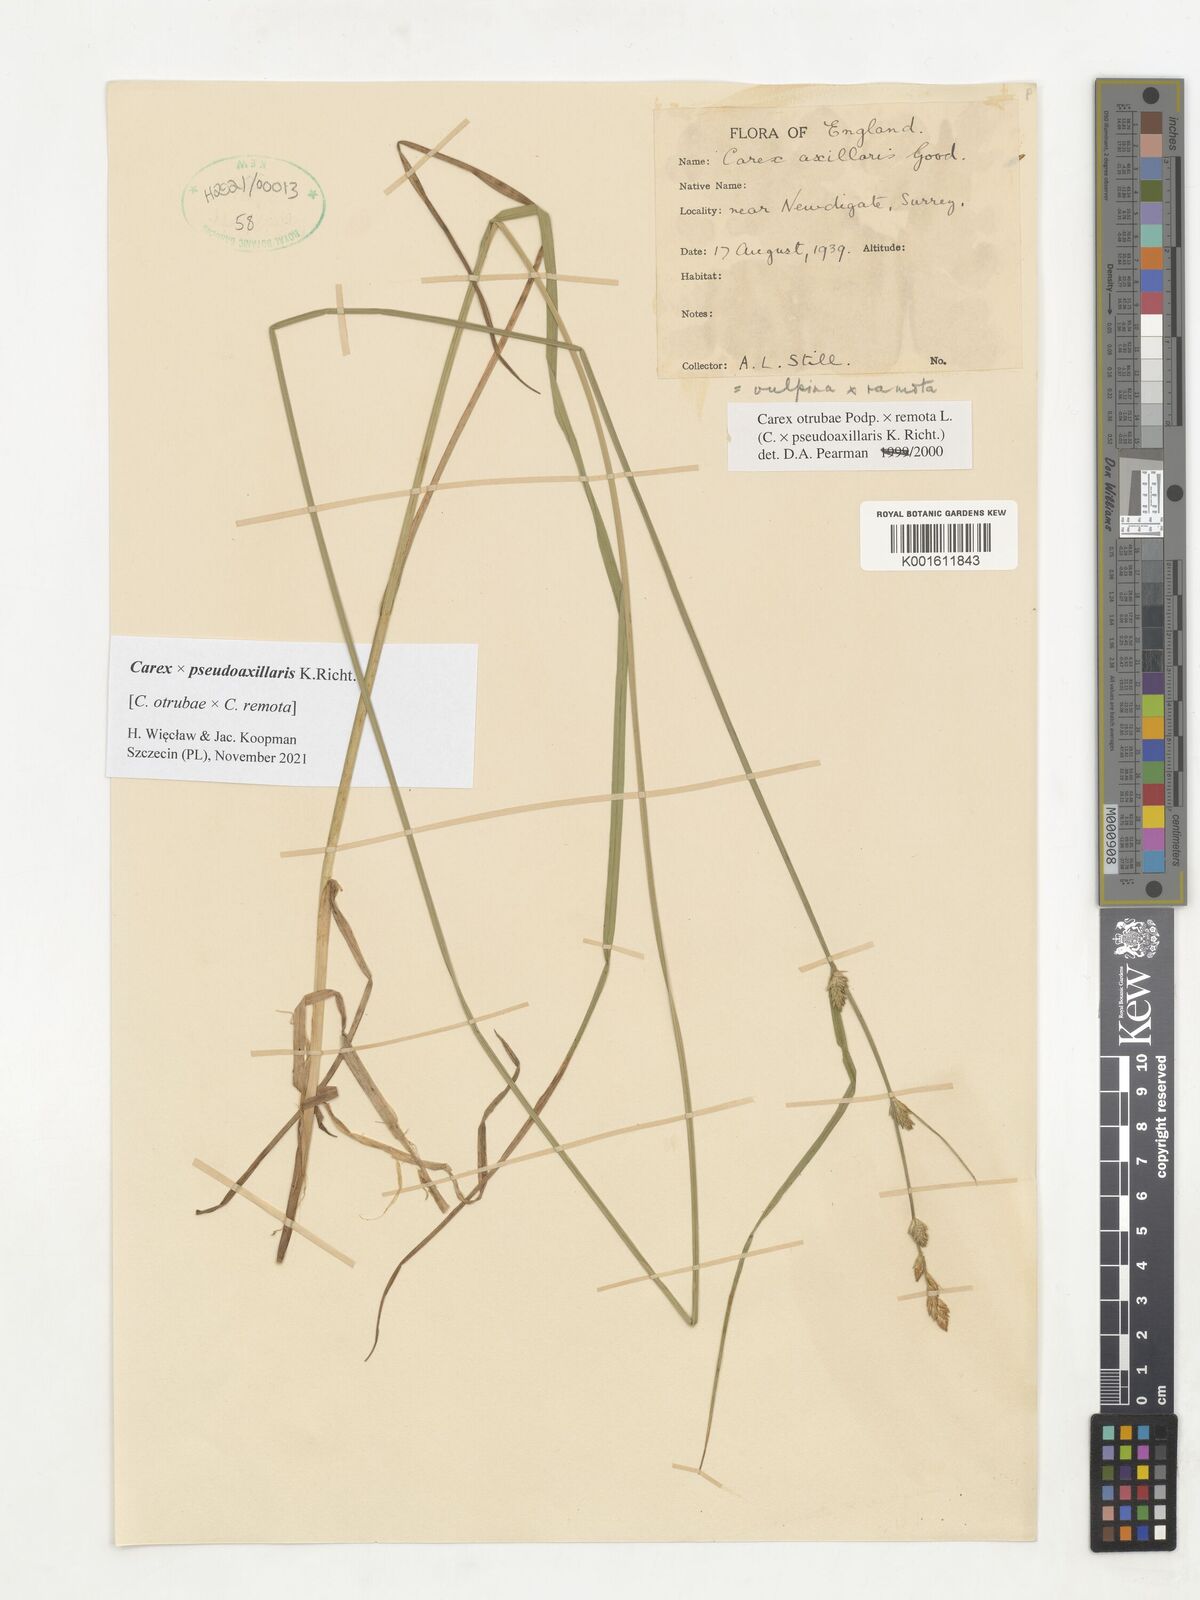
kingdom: Plantae
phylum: Tracheophyta
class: Liliopsida
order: Poales
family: Cyperaceae
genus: Carex
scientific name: Carex pseudoaxillaris
